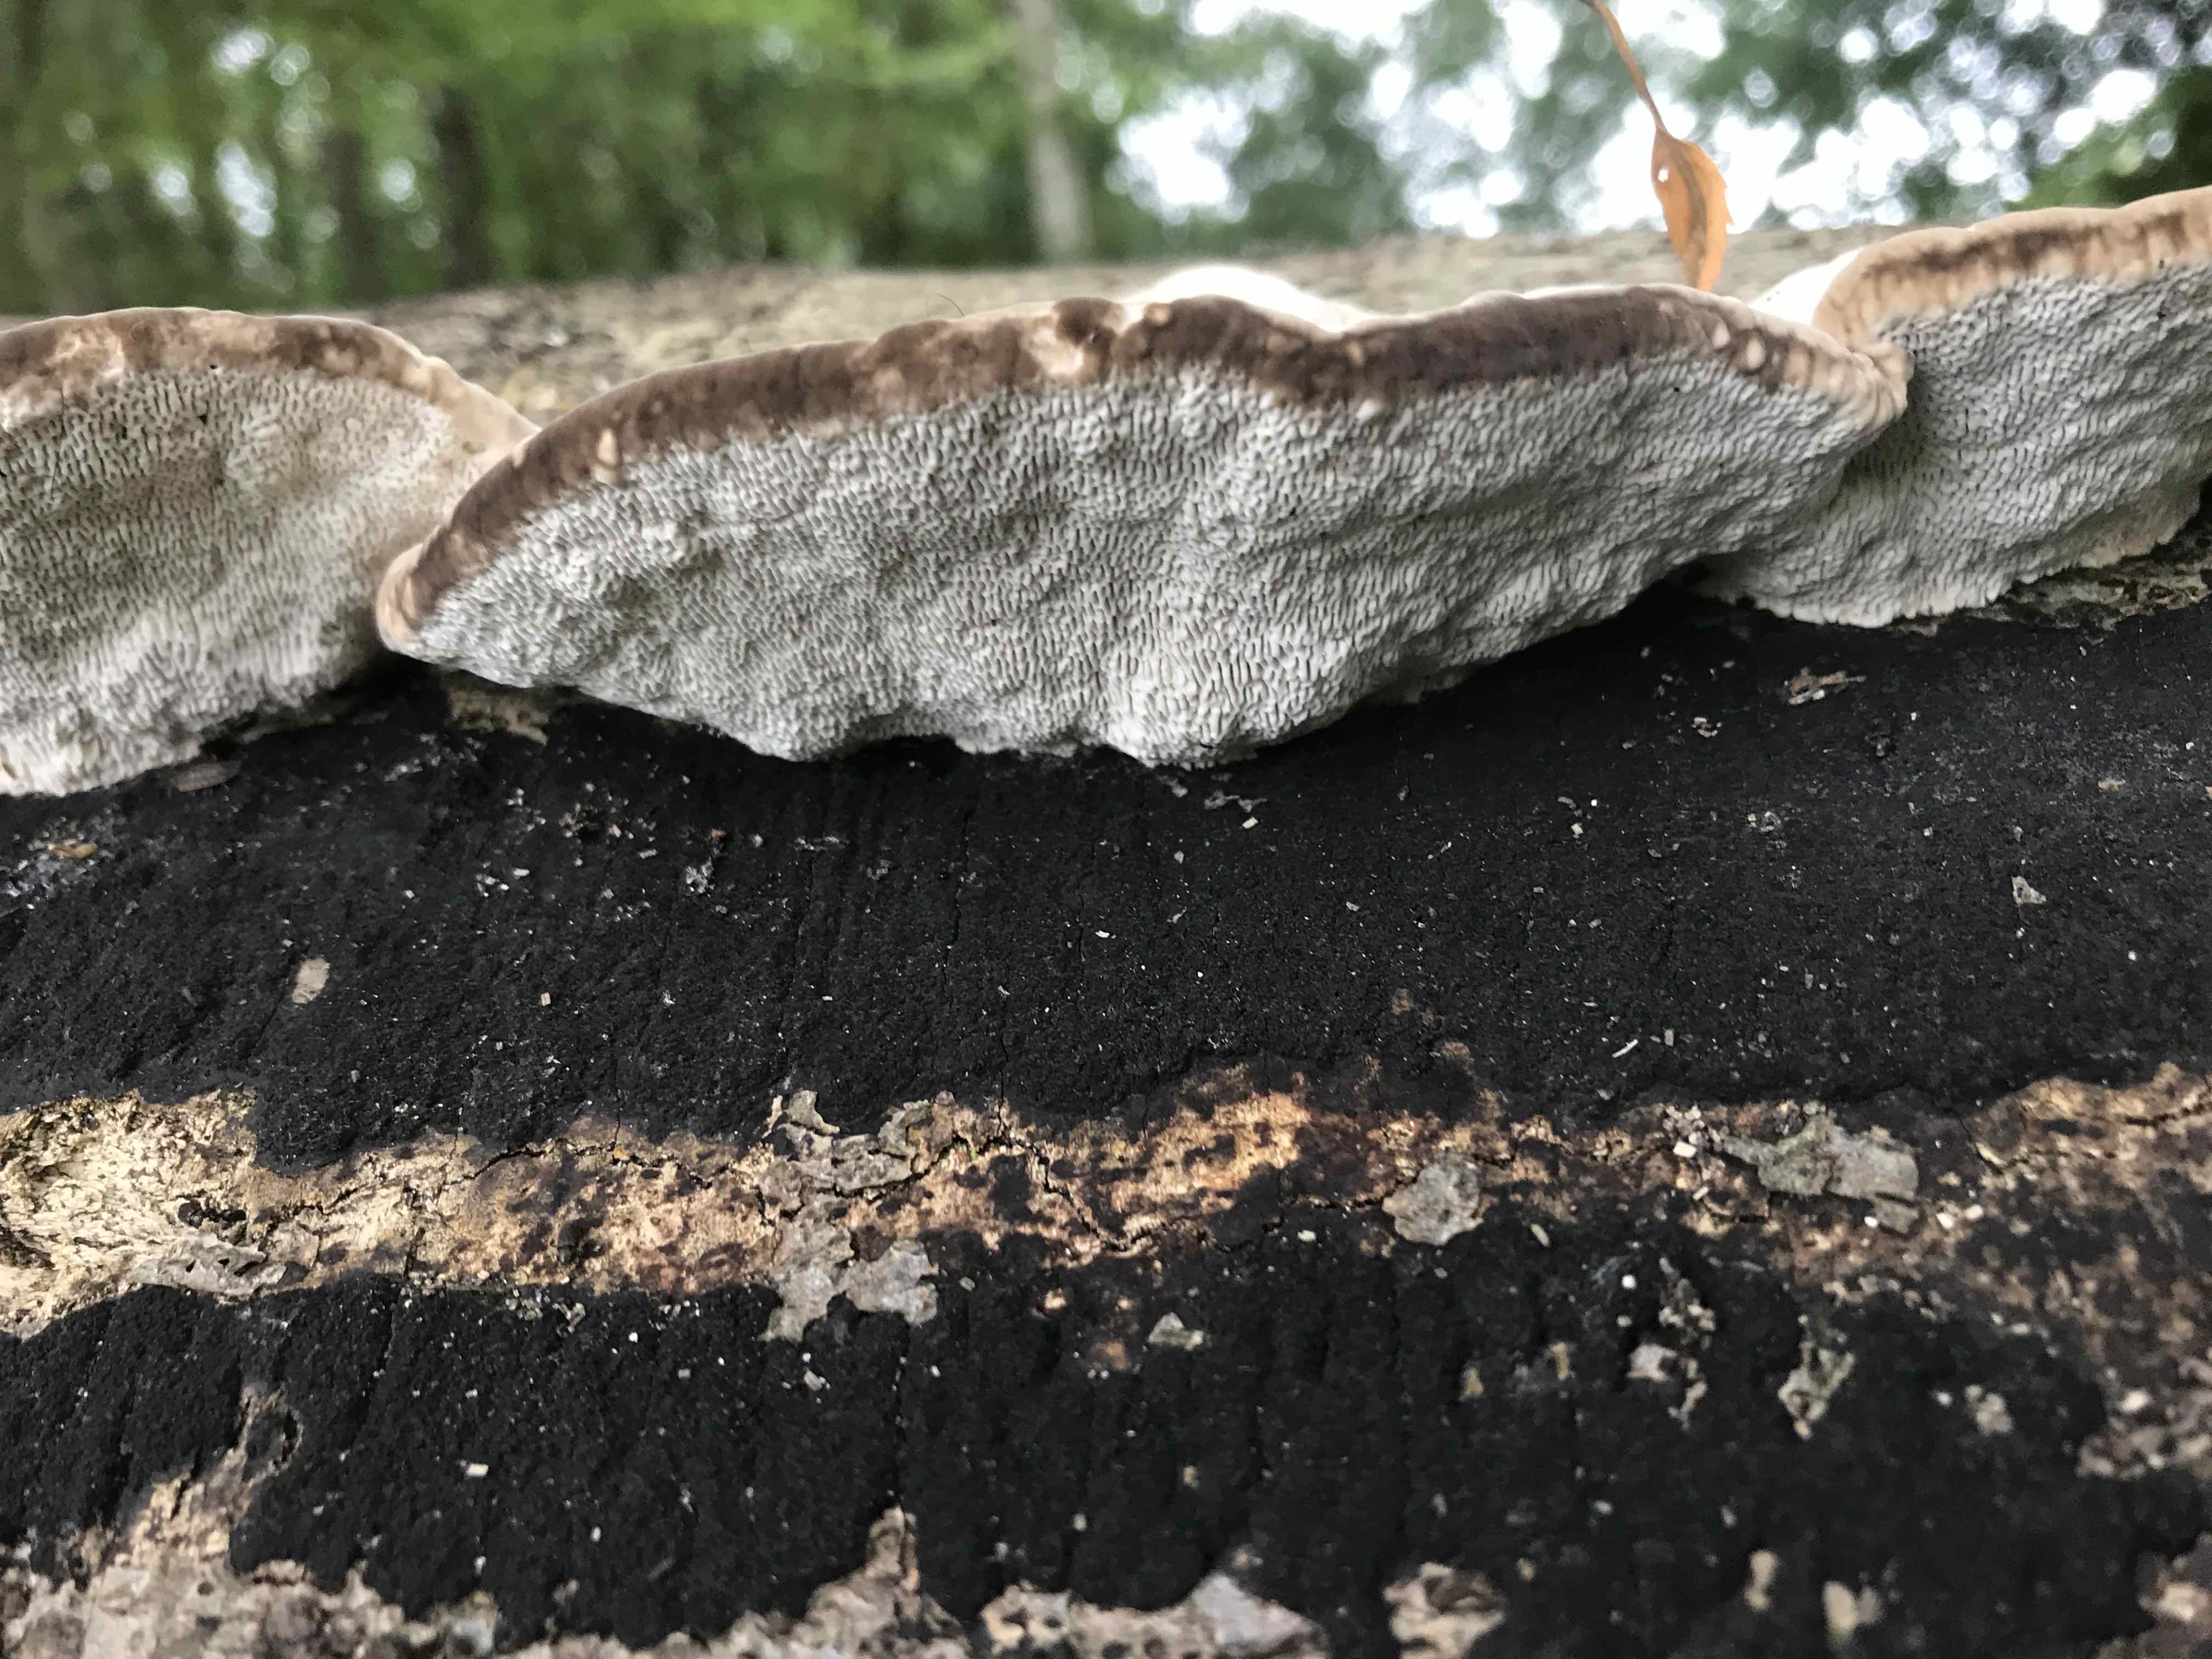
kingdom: Fungi
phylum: Basidiomycota
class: Agaricomycetes
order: Polyporales
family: Polyporaceae
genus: Trametes
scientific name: Trametes gibbosa
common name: puklet læderporesvamp
